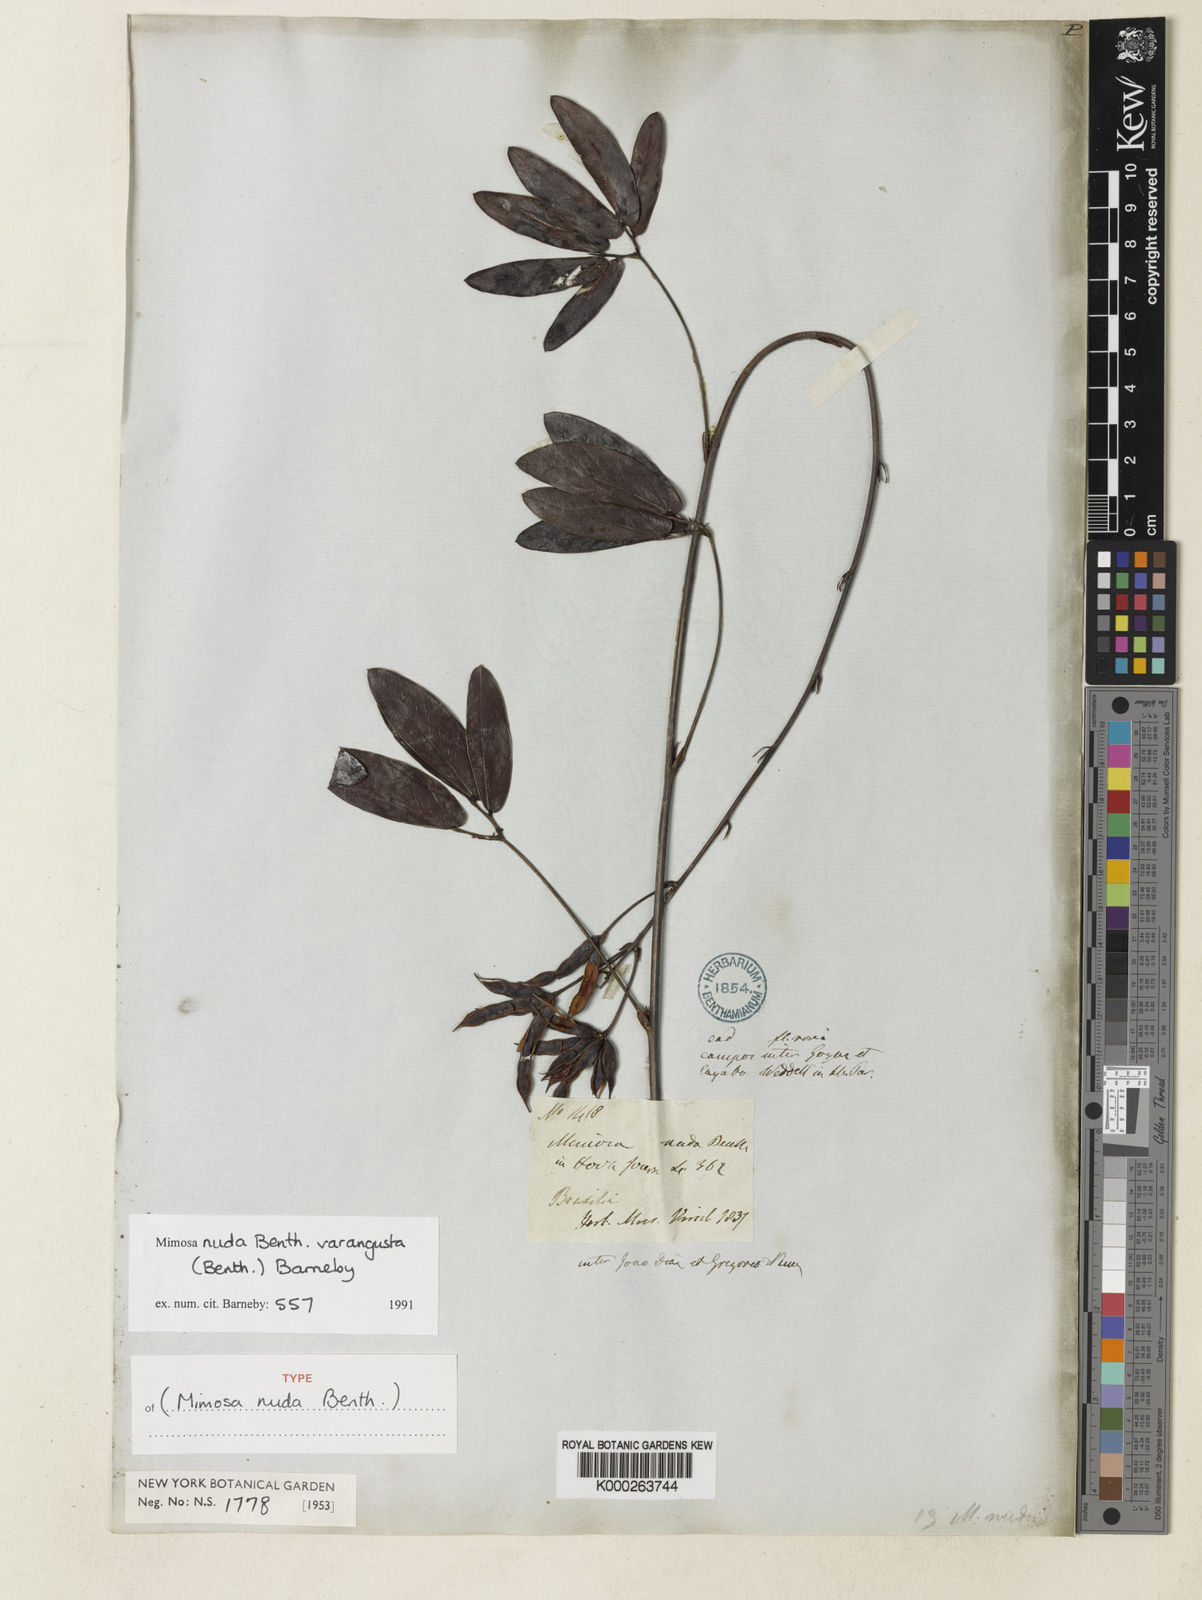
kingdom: Plantae
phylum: Tracheophyta
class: Magnoliopsida
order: Fabales
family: Fabaceae
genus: Mimosa
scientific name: Mimosa debilis
